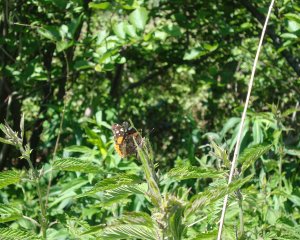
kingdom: Animalia
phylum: Arthropoda
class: Insecta
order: Lepidoptera
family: Nymphalidae
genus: Vanessa
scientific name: Vanessa atalanta
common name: Red Admiral
